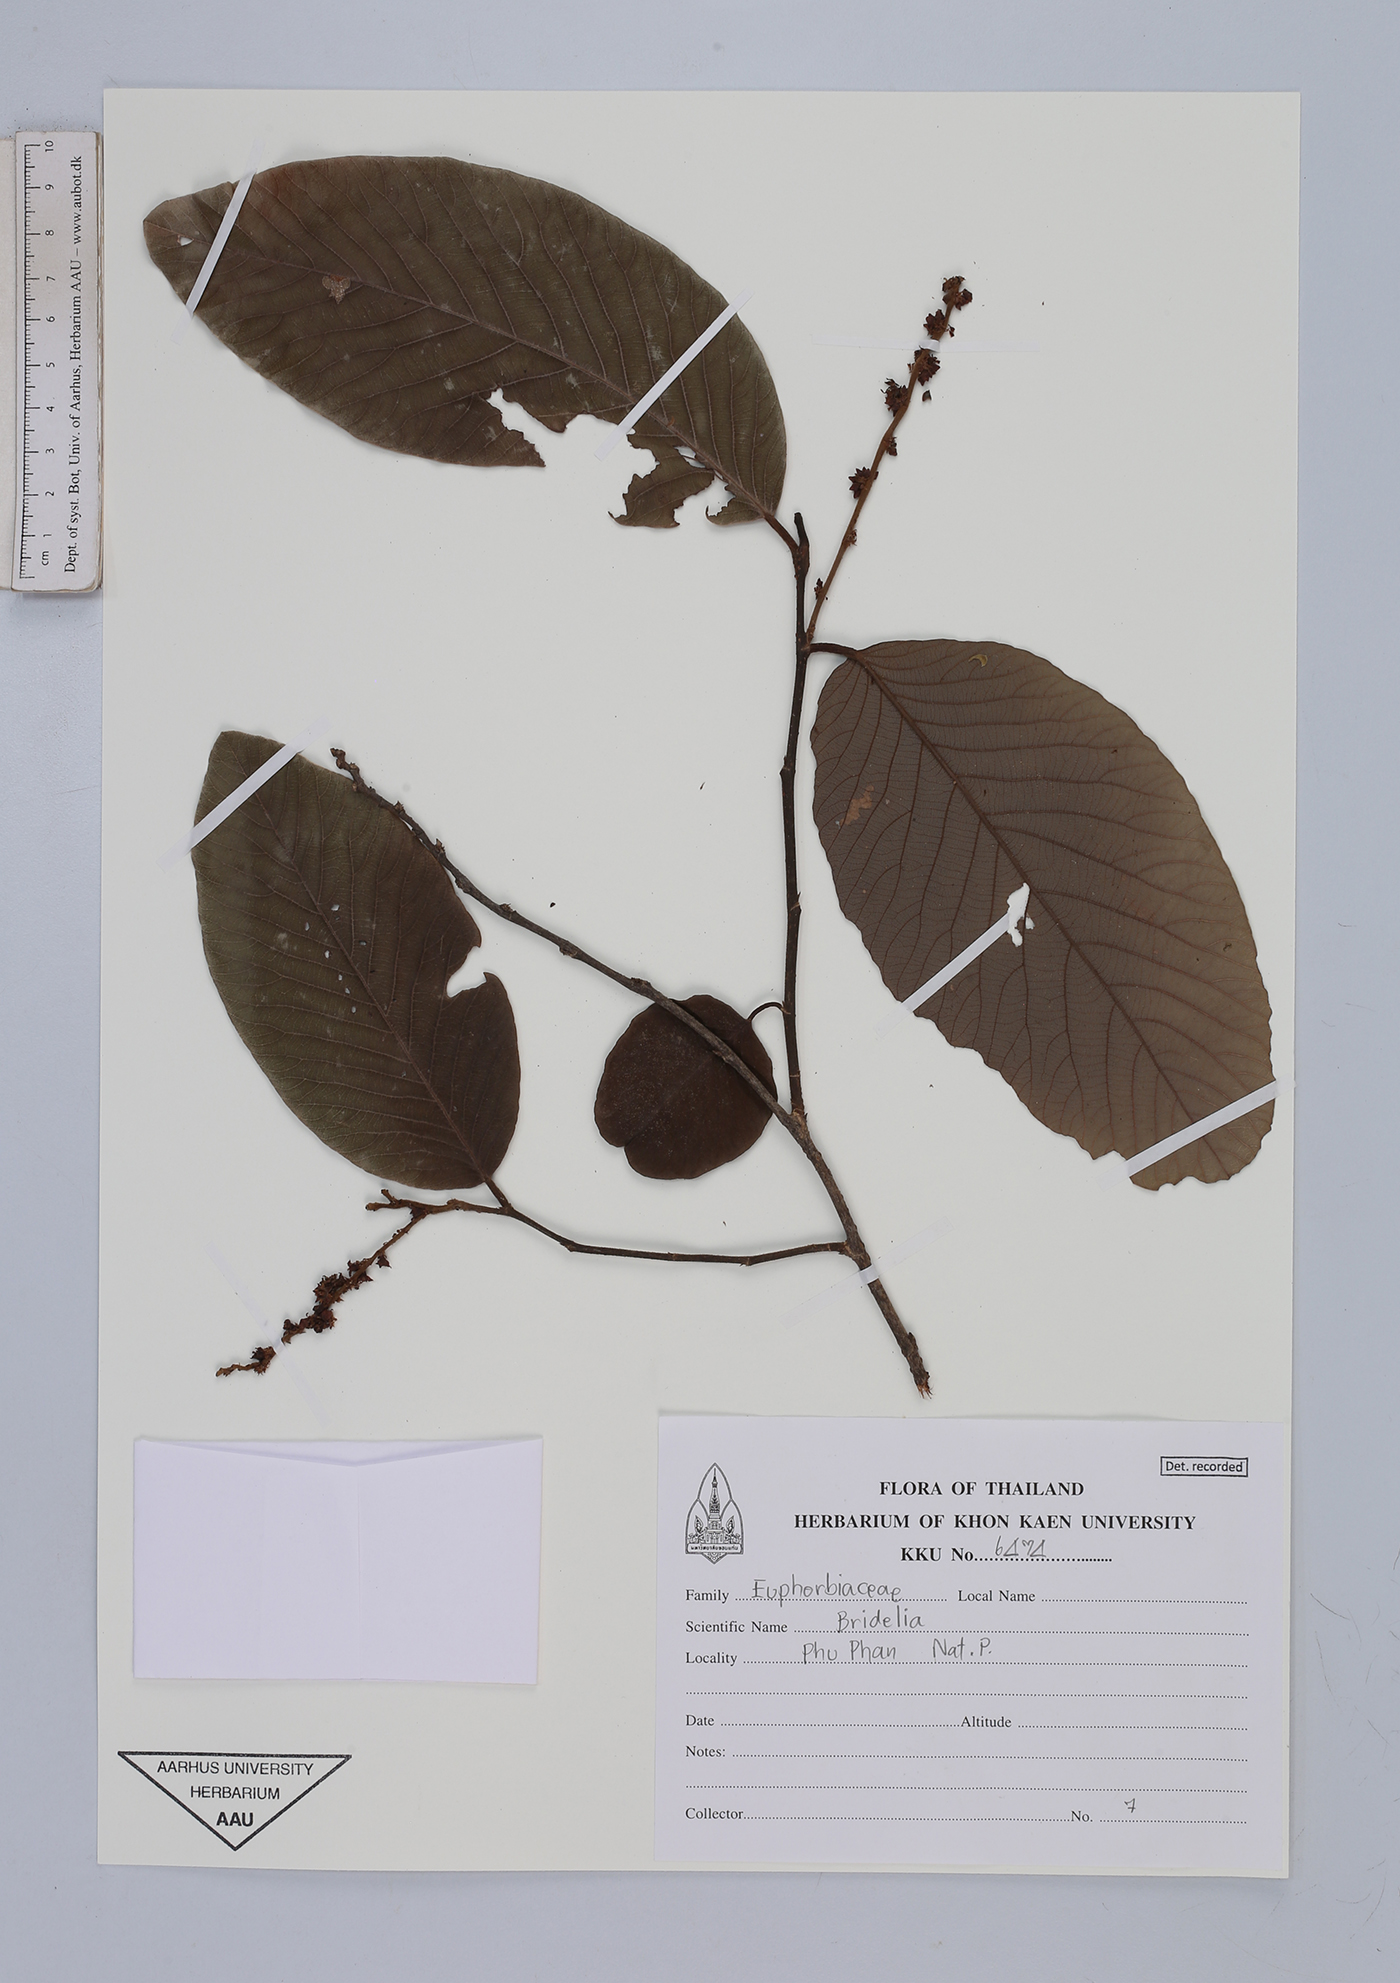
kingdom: Plantae
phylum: Tracheophyta
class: Magnoliopsida
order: Malpighiales
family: Euphorbiaceae
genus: Bridelia
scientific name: Bridelia
